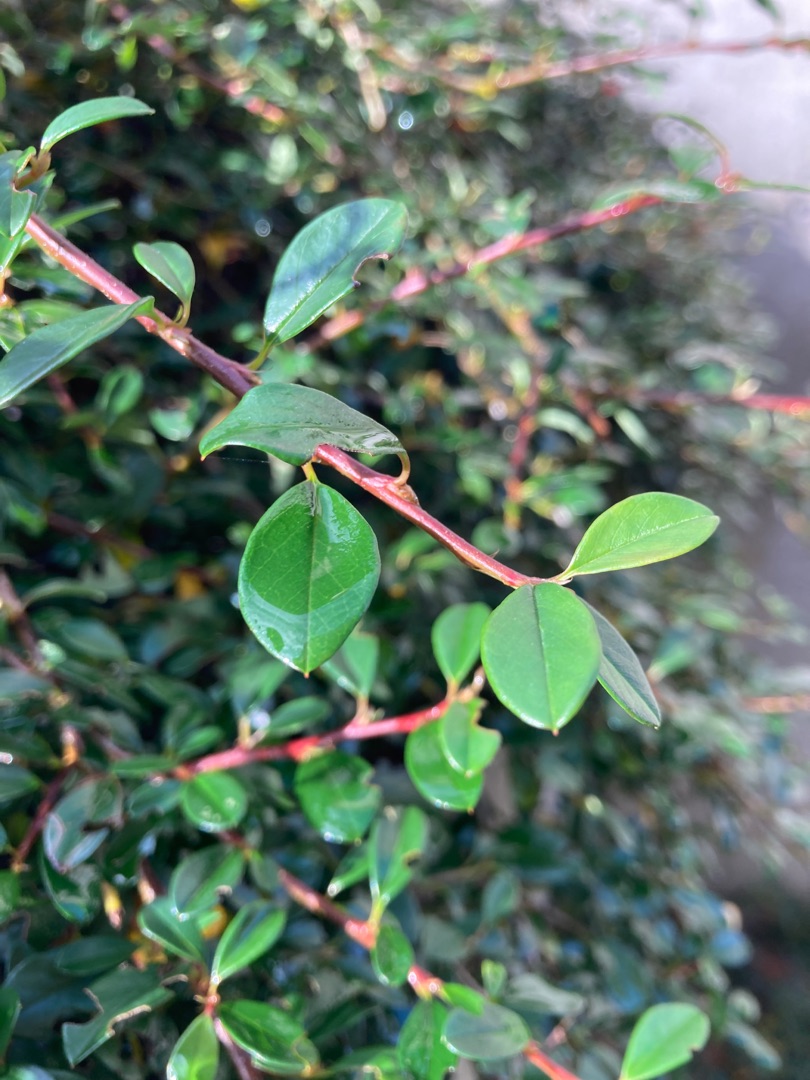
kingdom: Plantae
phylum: Tracheophyta
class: Magnoliopsida
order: Rosales
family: Rosaceae
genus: Cotoneaster
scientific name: Cotoneaster
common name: Dværgmispelslægten
